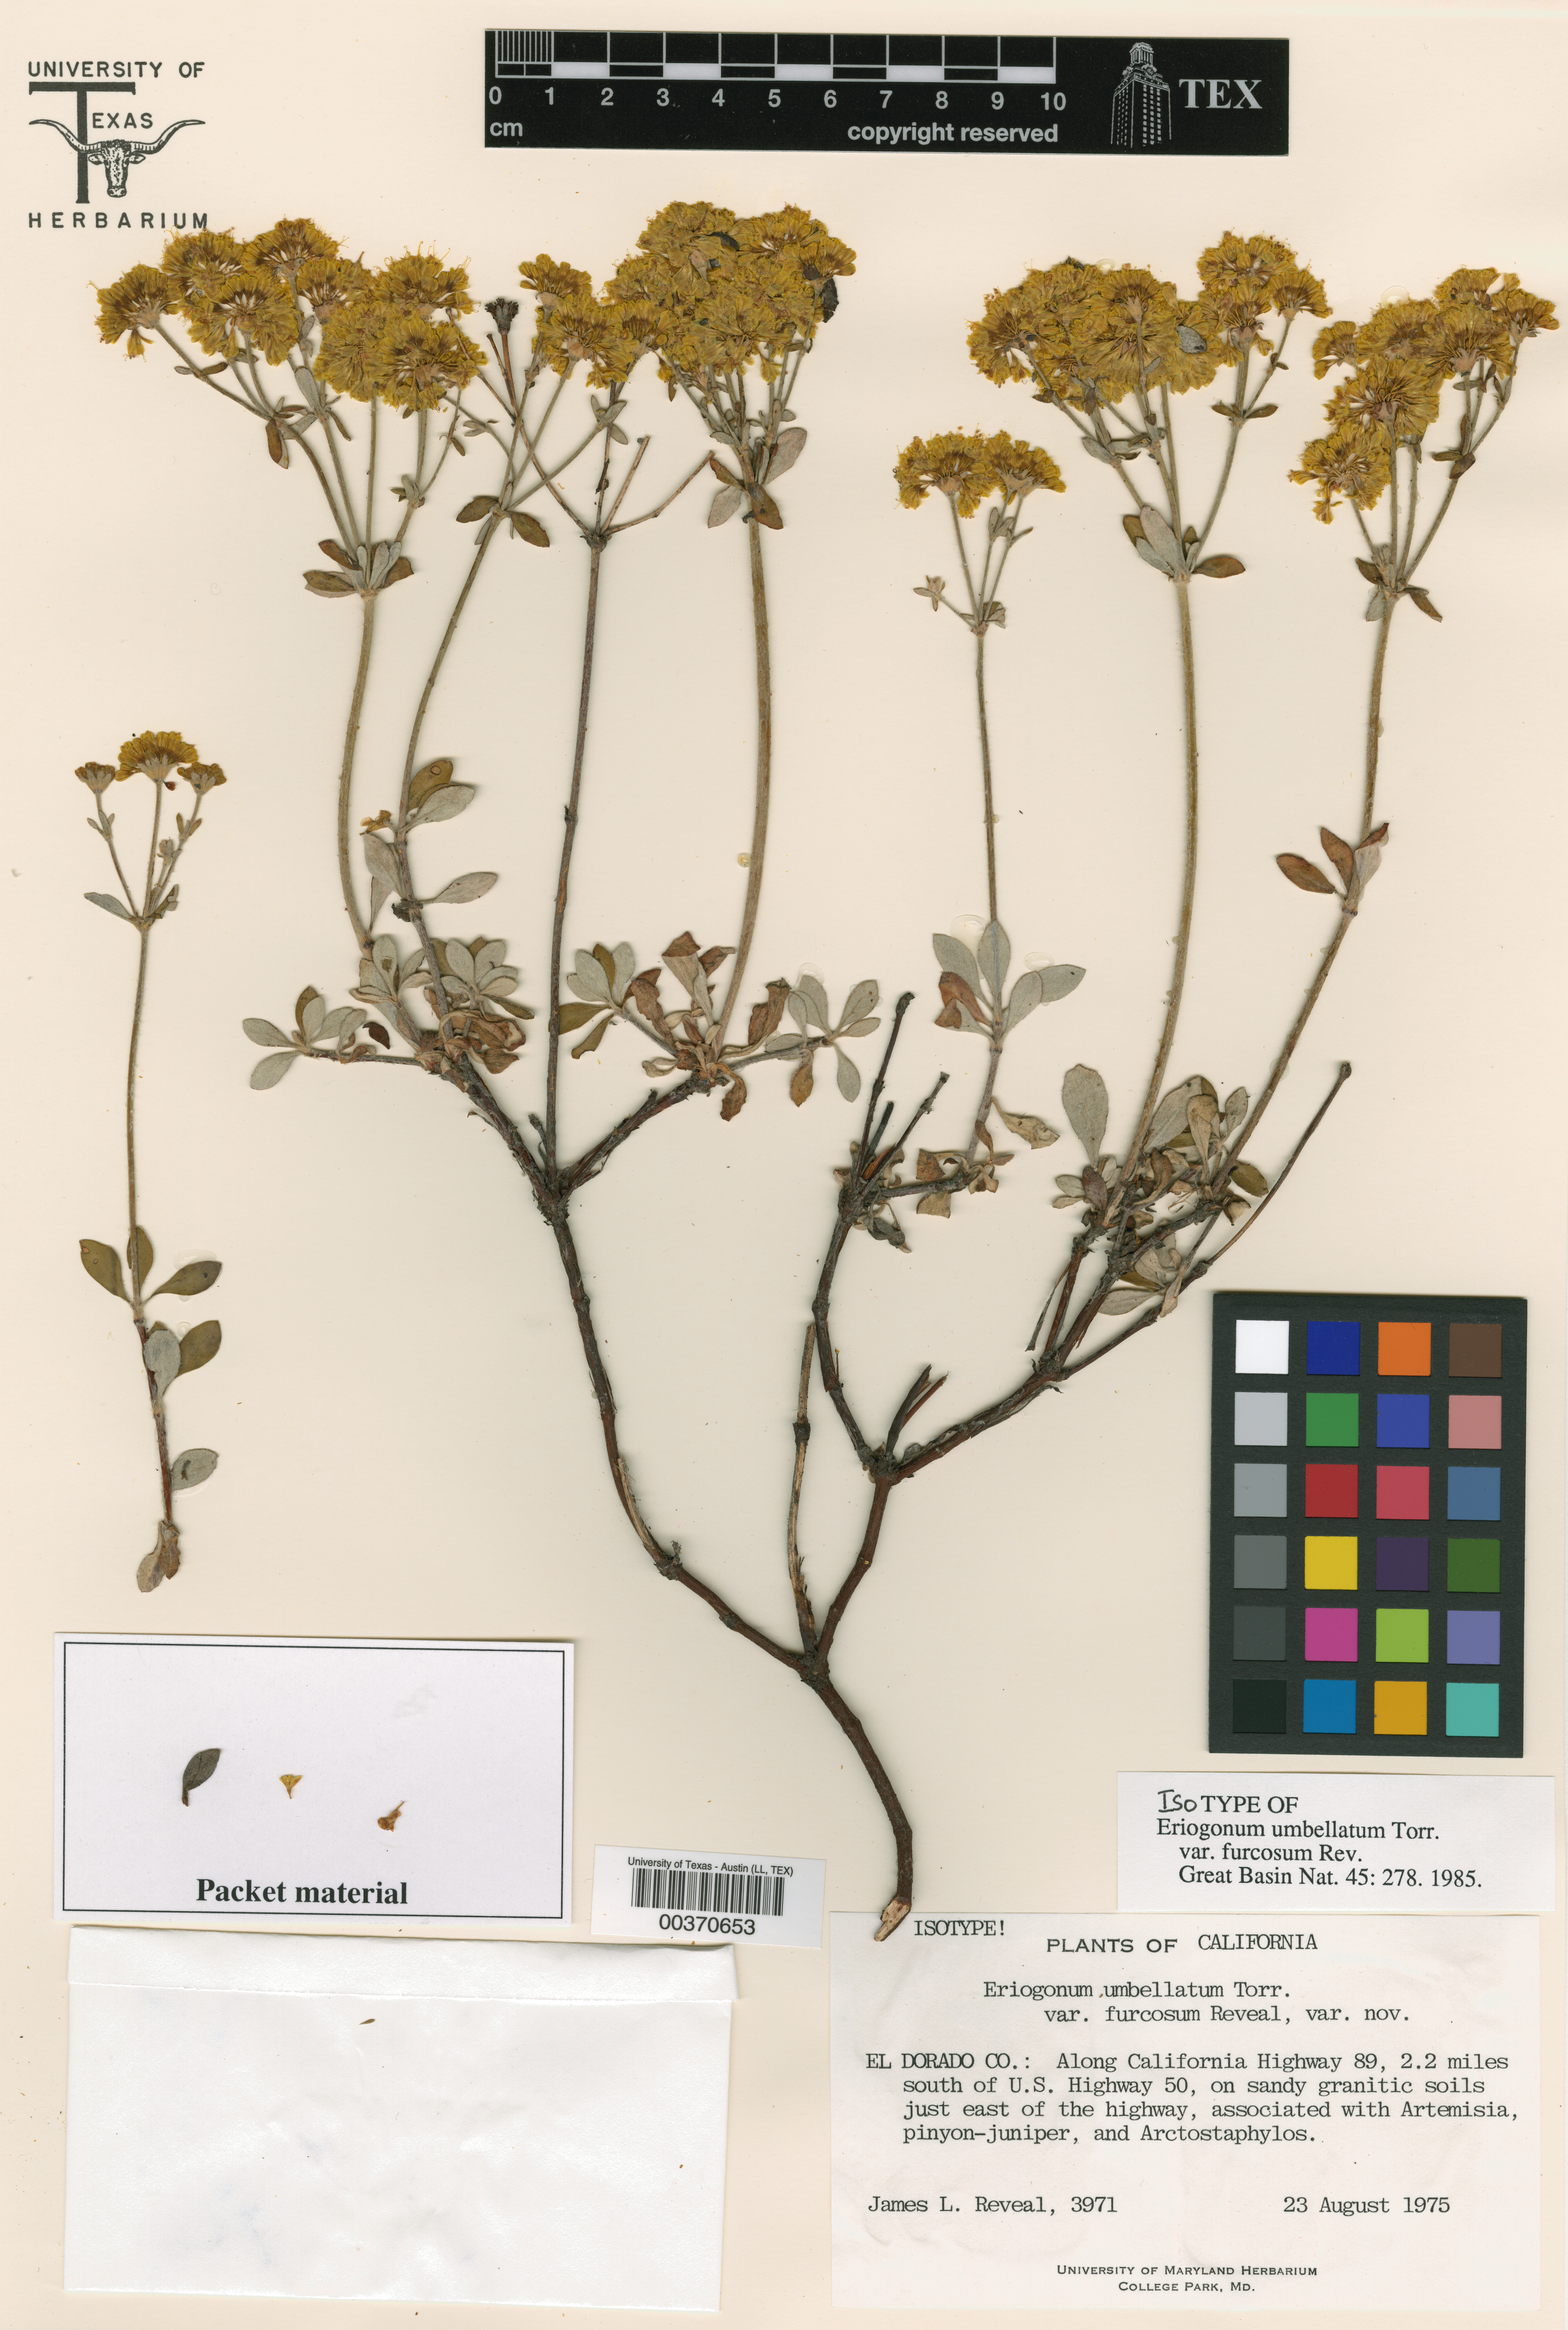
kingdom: Plantae
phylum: Tracheophyta
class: Magnoliopsida
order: Caryophyllales
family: Polygonaceae
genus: Eriogonum
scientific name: Eriogonum umbellatum
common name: Sulfur-buckwheat
